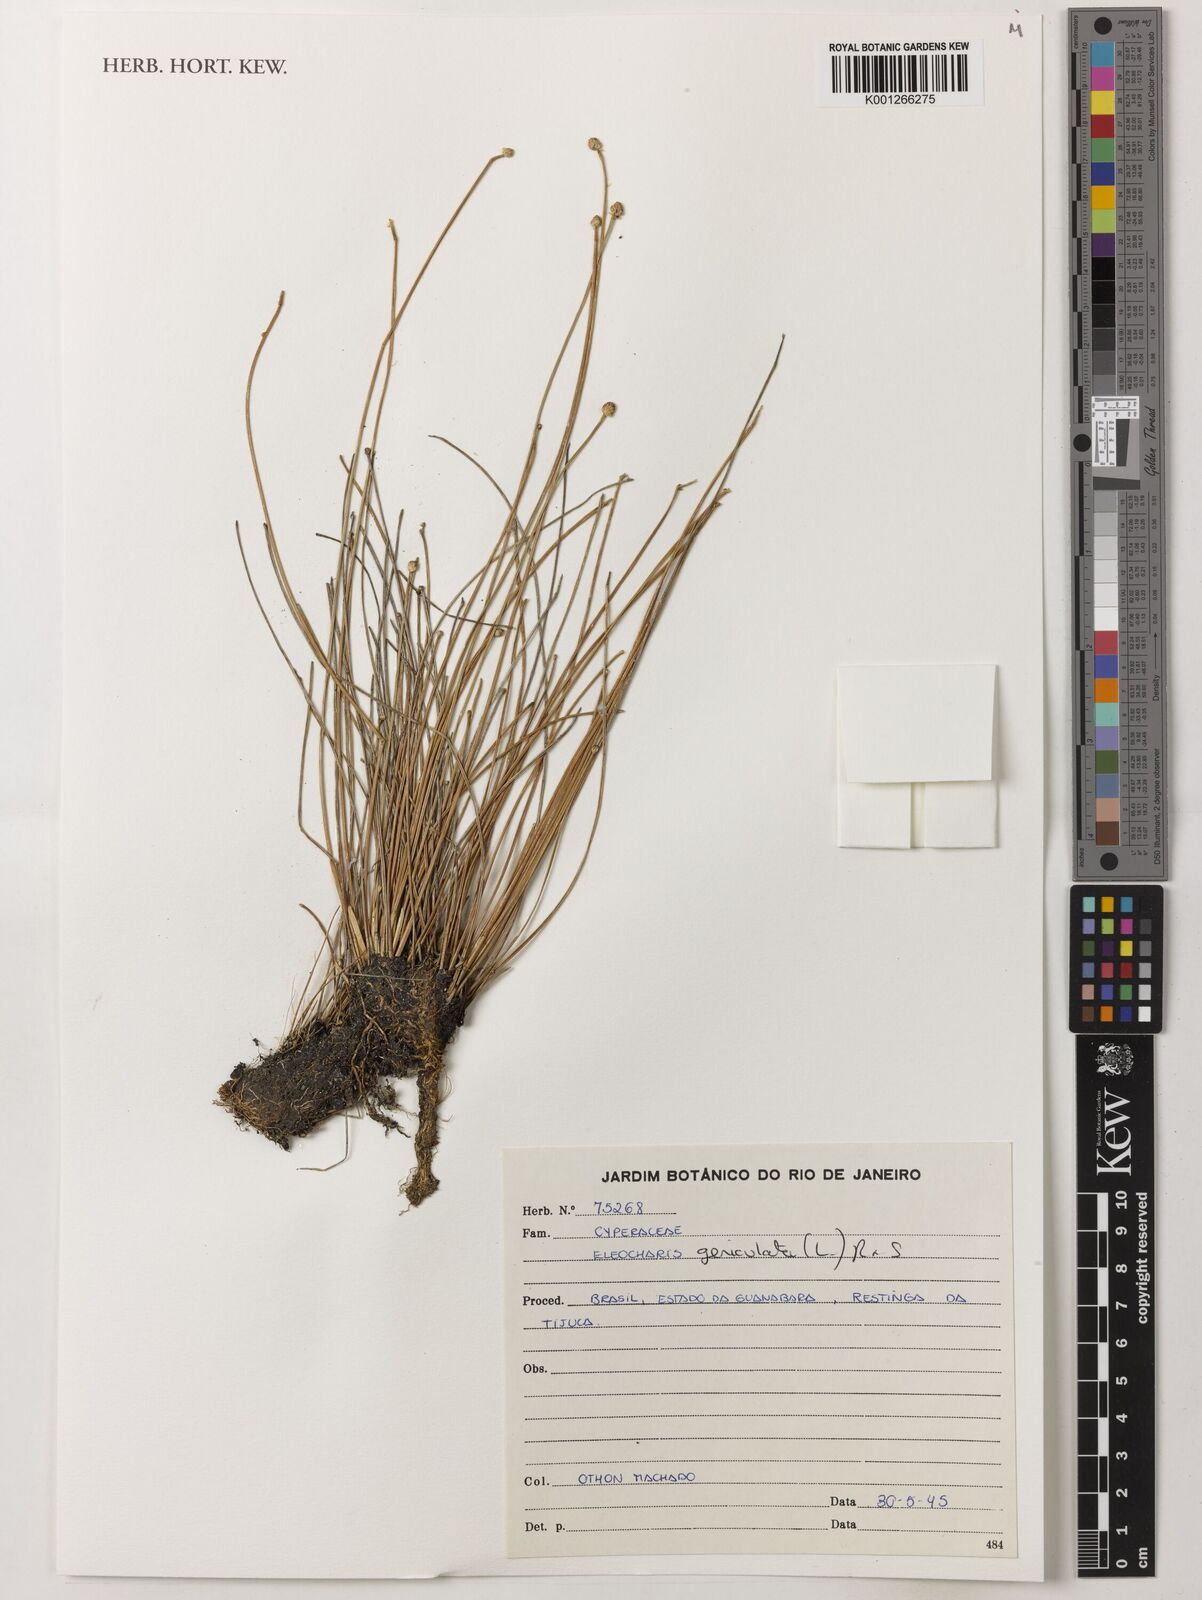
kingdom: Plantae
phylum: Tracheophyta
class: Liliopsida
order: Poales
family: Cyperaceae
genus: Eleocharis
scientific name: Eleocharis geniculata
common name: Canada spikesedge
